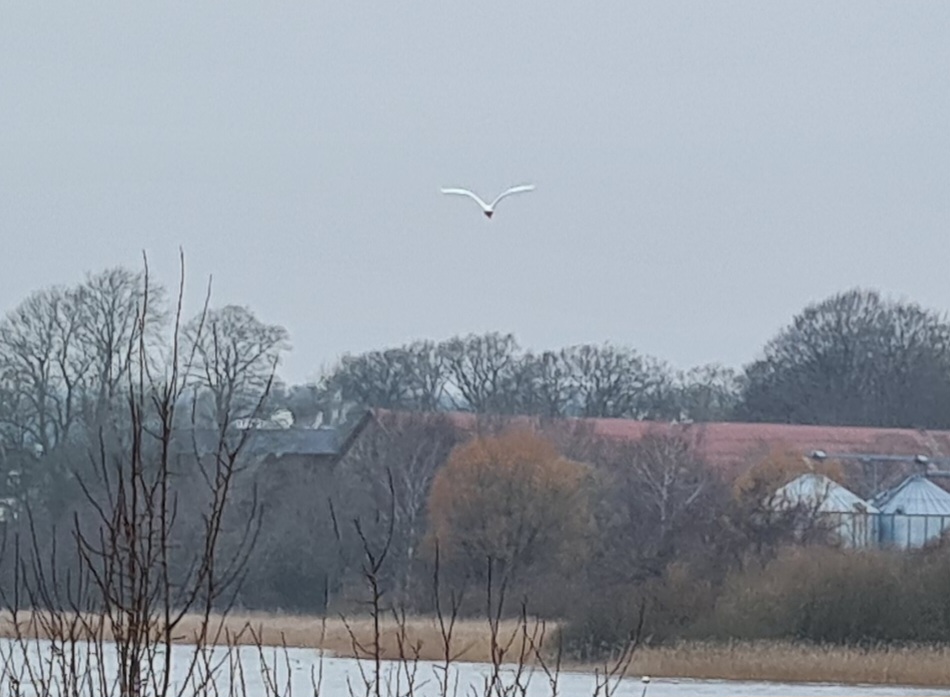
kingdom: Animalia
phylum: Chordata
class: Aves
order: Pelecaniformes
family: Ardeidae
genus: Ardea
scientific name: Ardea alba
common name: Sølvhejre
